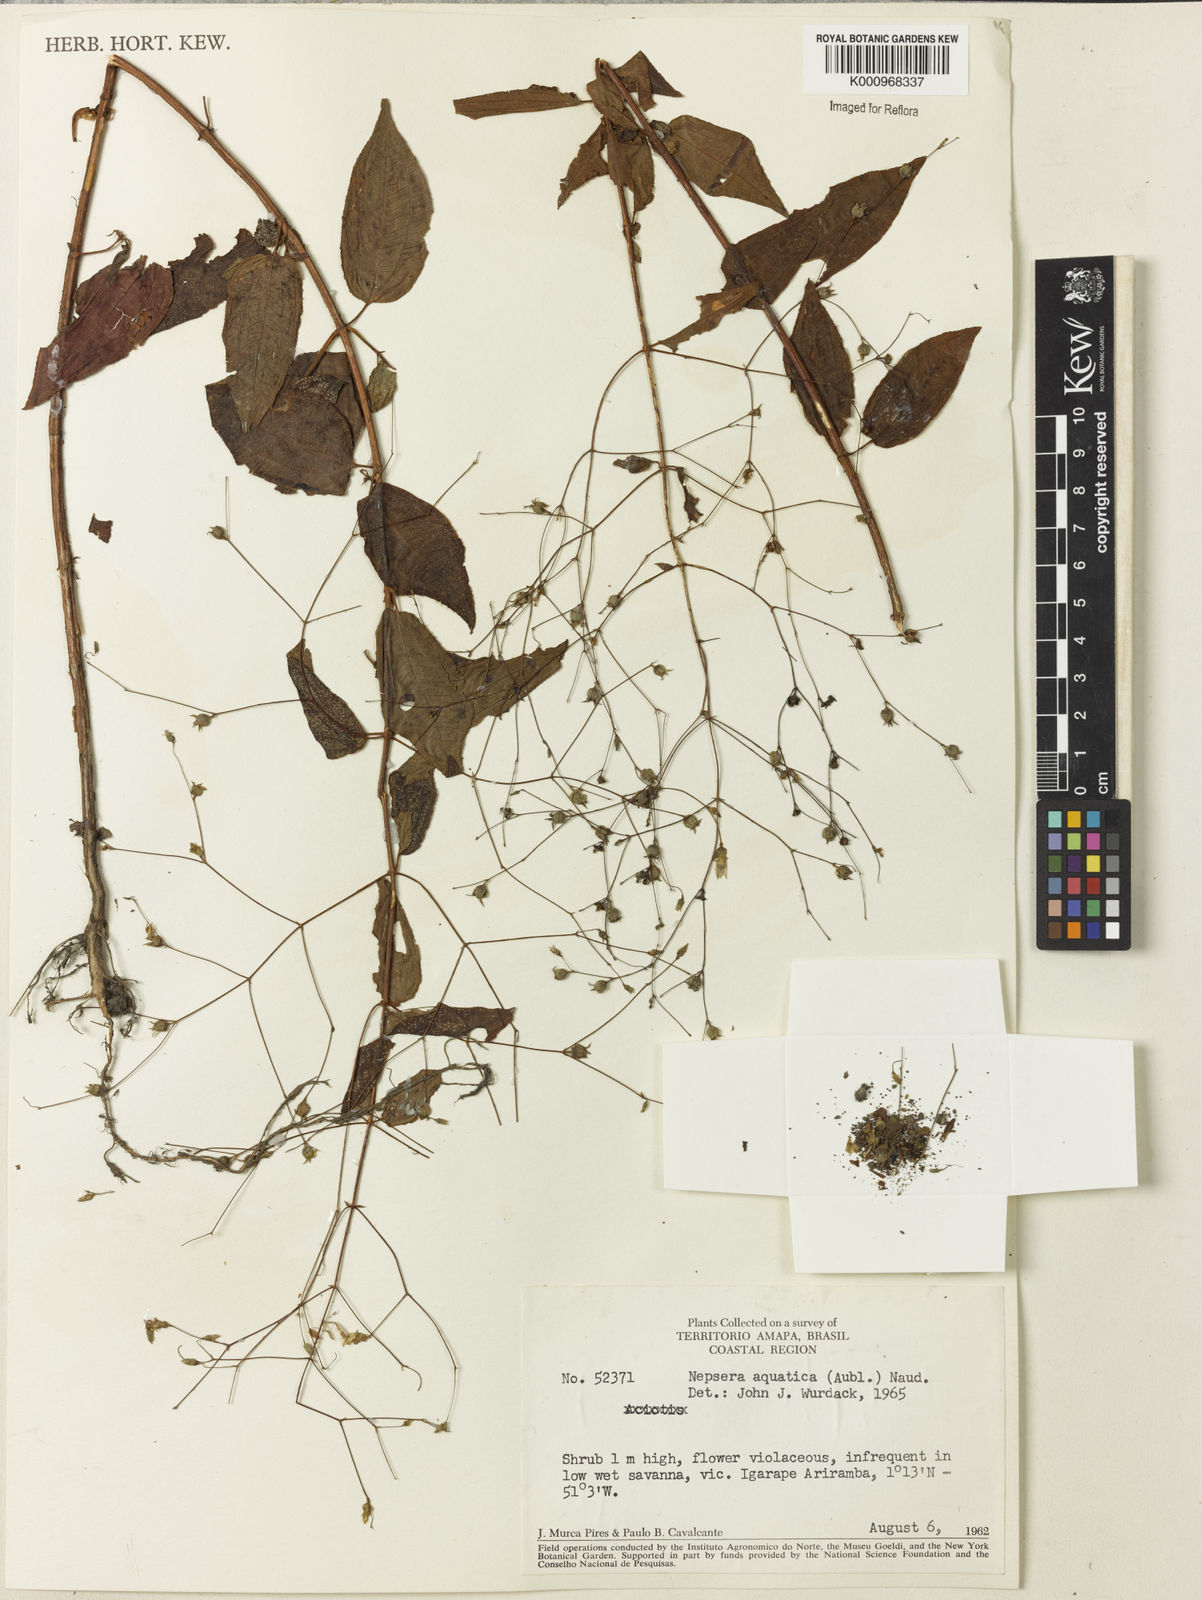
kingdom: Plantae
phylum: Tracheophyta
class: Magnoliopsida
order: Myrtales
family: Melastomataceae
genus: Nepsera
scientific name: Nepsera aquatica
